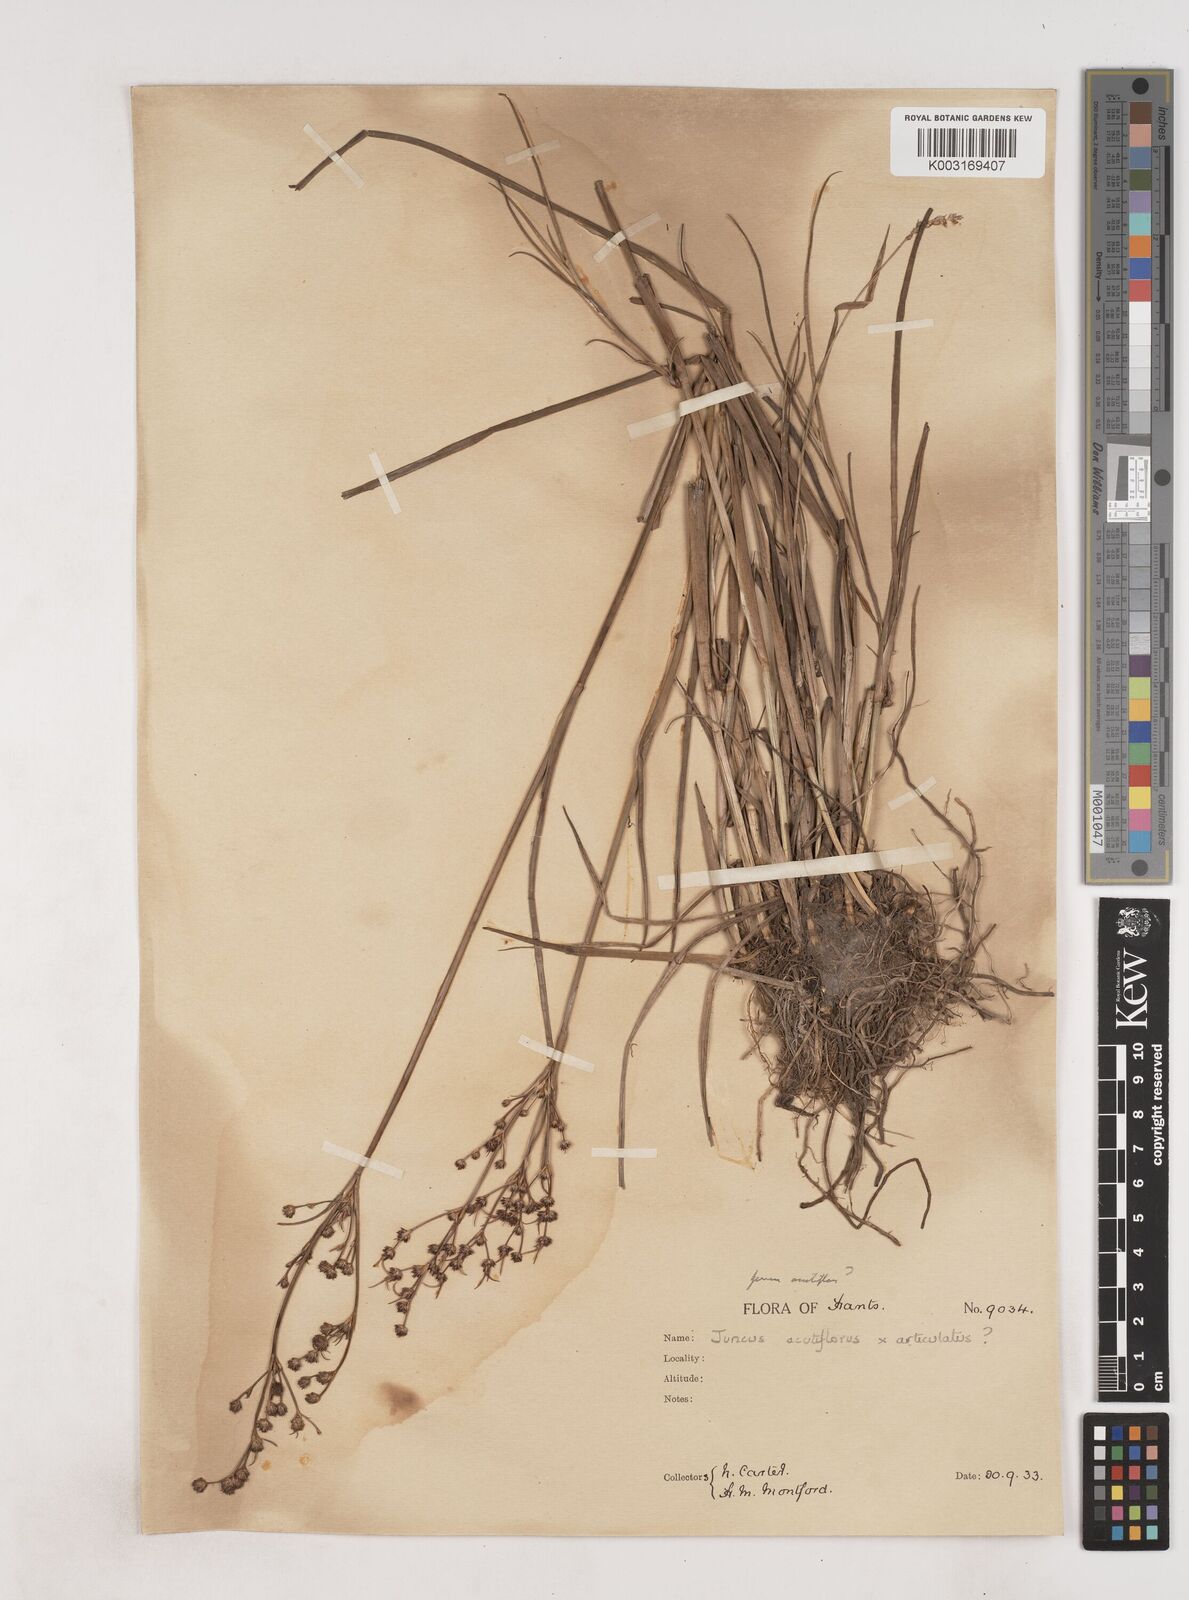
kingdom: Plantae
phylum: Tracheophyta
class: Liliopsida
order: Poales
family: Juncaceae
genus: Juncus
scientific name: Juncus
